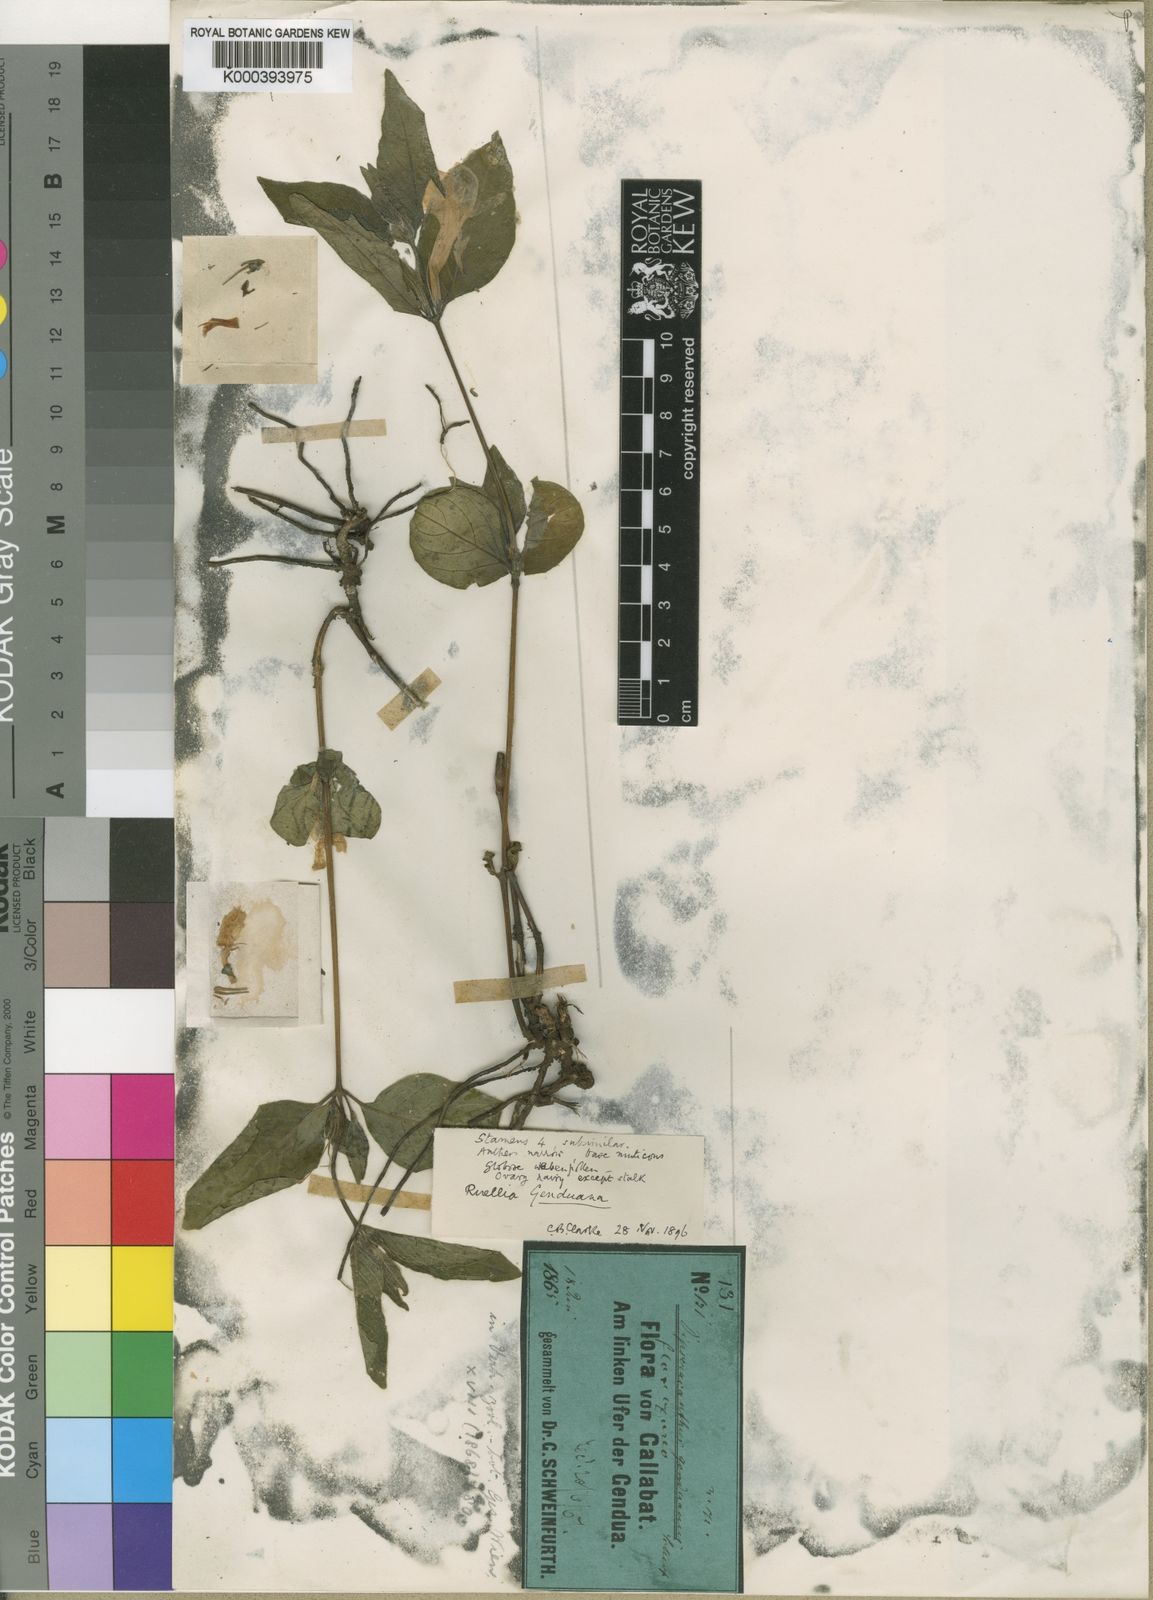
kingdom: Plantae
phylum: Tracheophyta
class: Magnoliopsida
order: Lamiales
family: Acanthaceae
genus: Ruellia
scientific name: Ruellia prostrata
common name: Prostrate wild petunia
